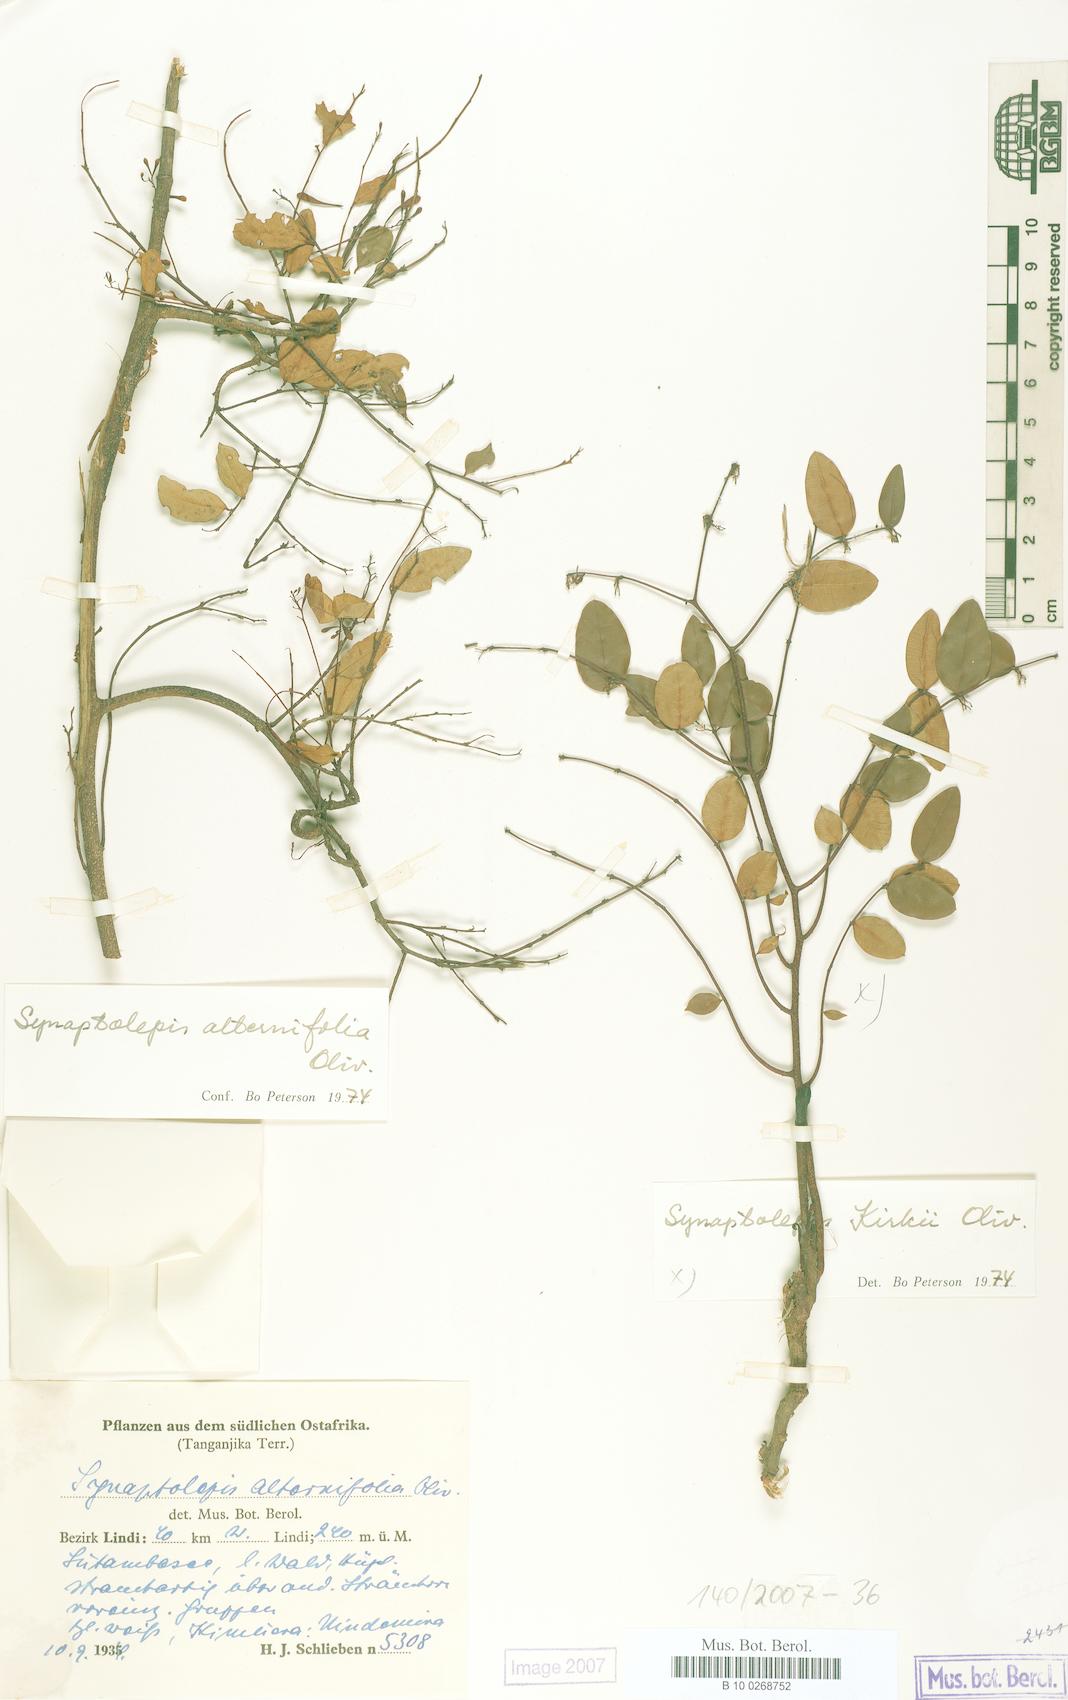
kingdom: Plantae
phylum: Tracheophyta
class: Magnoliopsida
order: Malvales
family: Thymelaeaceae
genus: Synaptolepis
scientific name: Synaptolepis alternifolia
